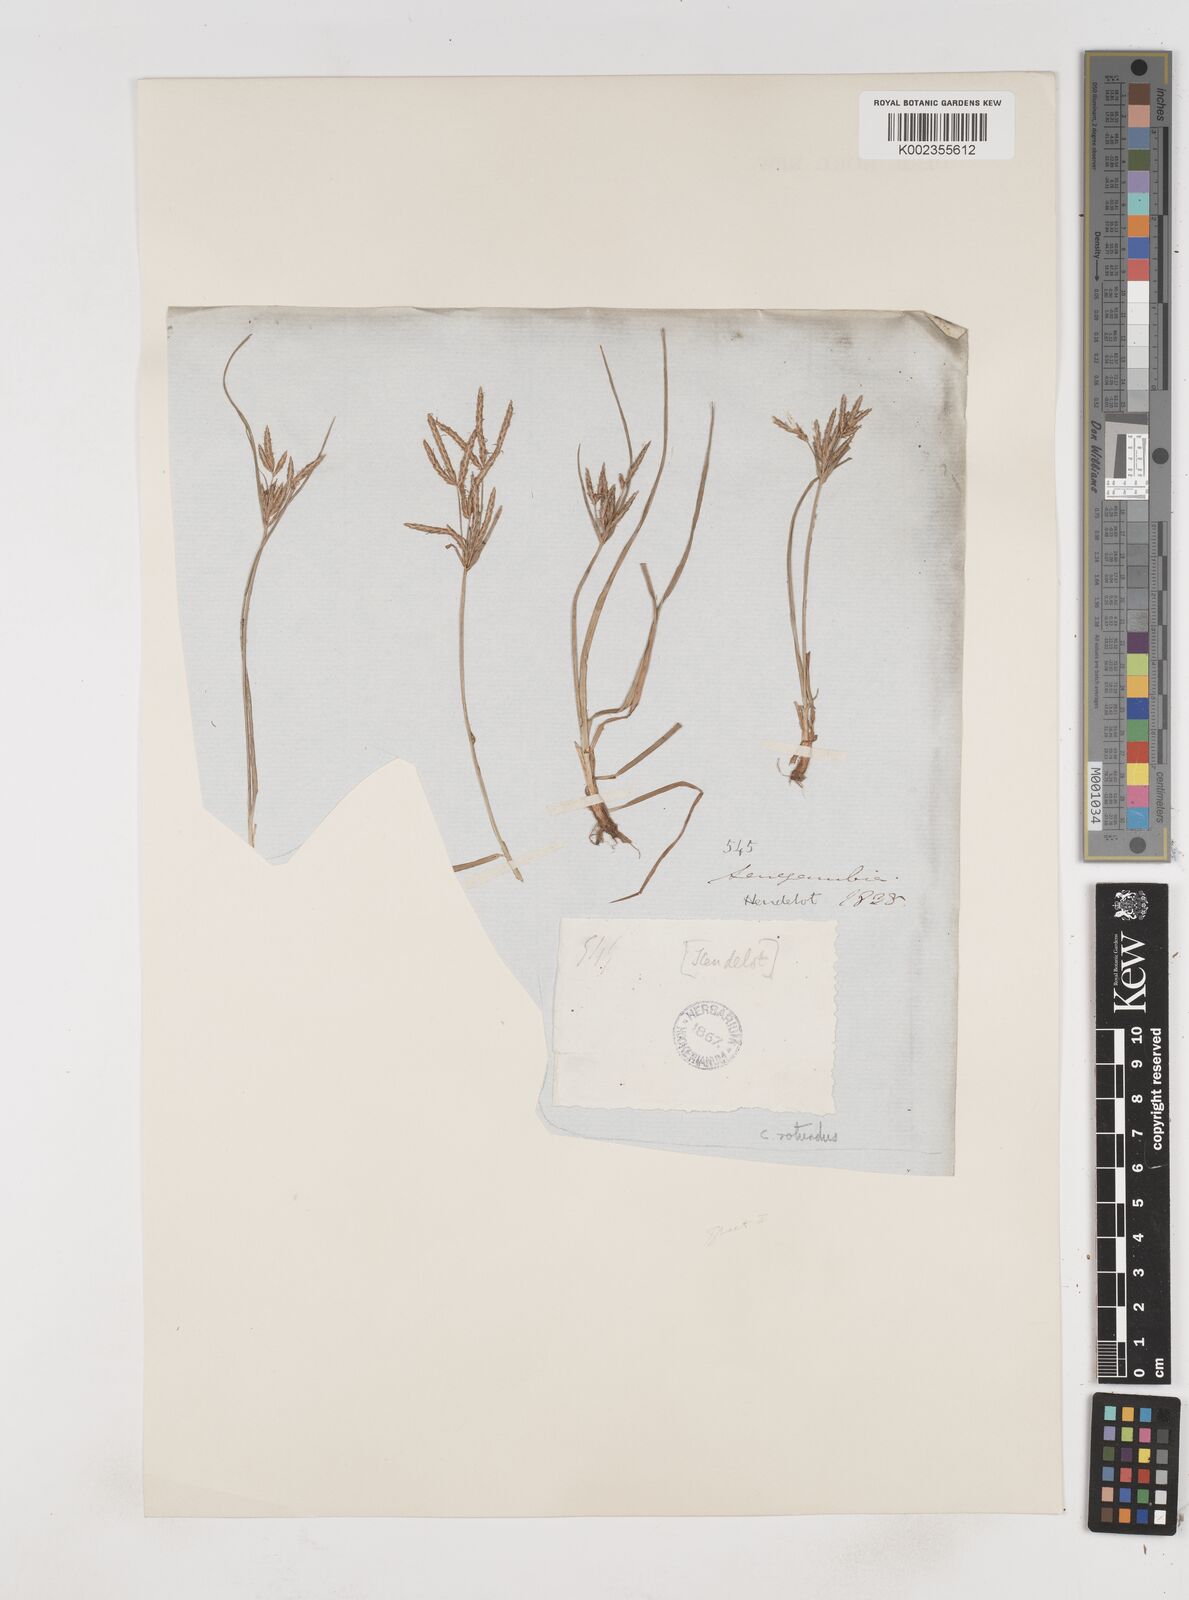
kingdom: Plantae
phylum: Tracheophyta
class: Liliopsida
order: Poales
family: Cyperaceae
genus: Cyperus
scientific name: Cyperus rotundus
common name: Nutgrass
